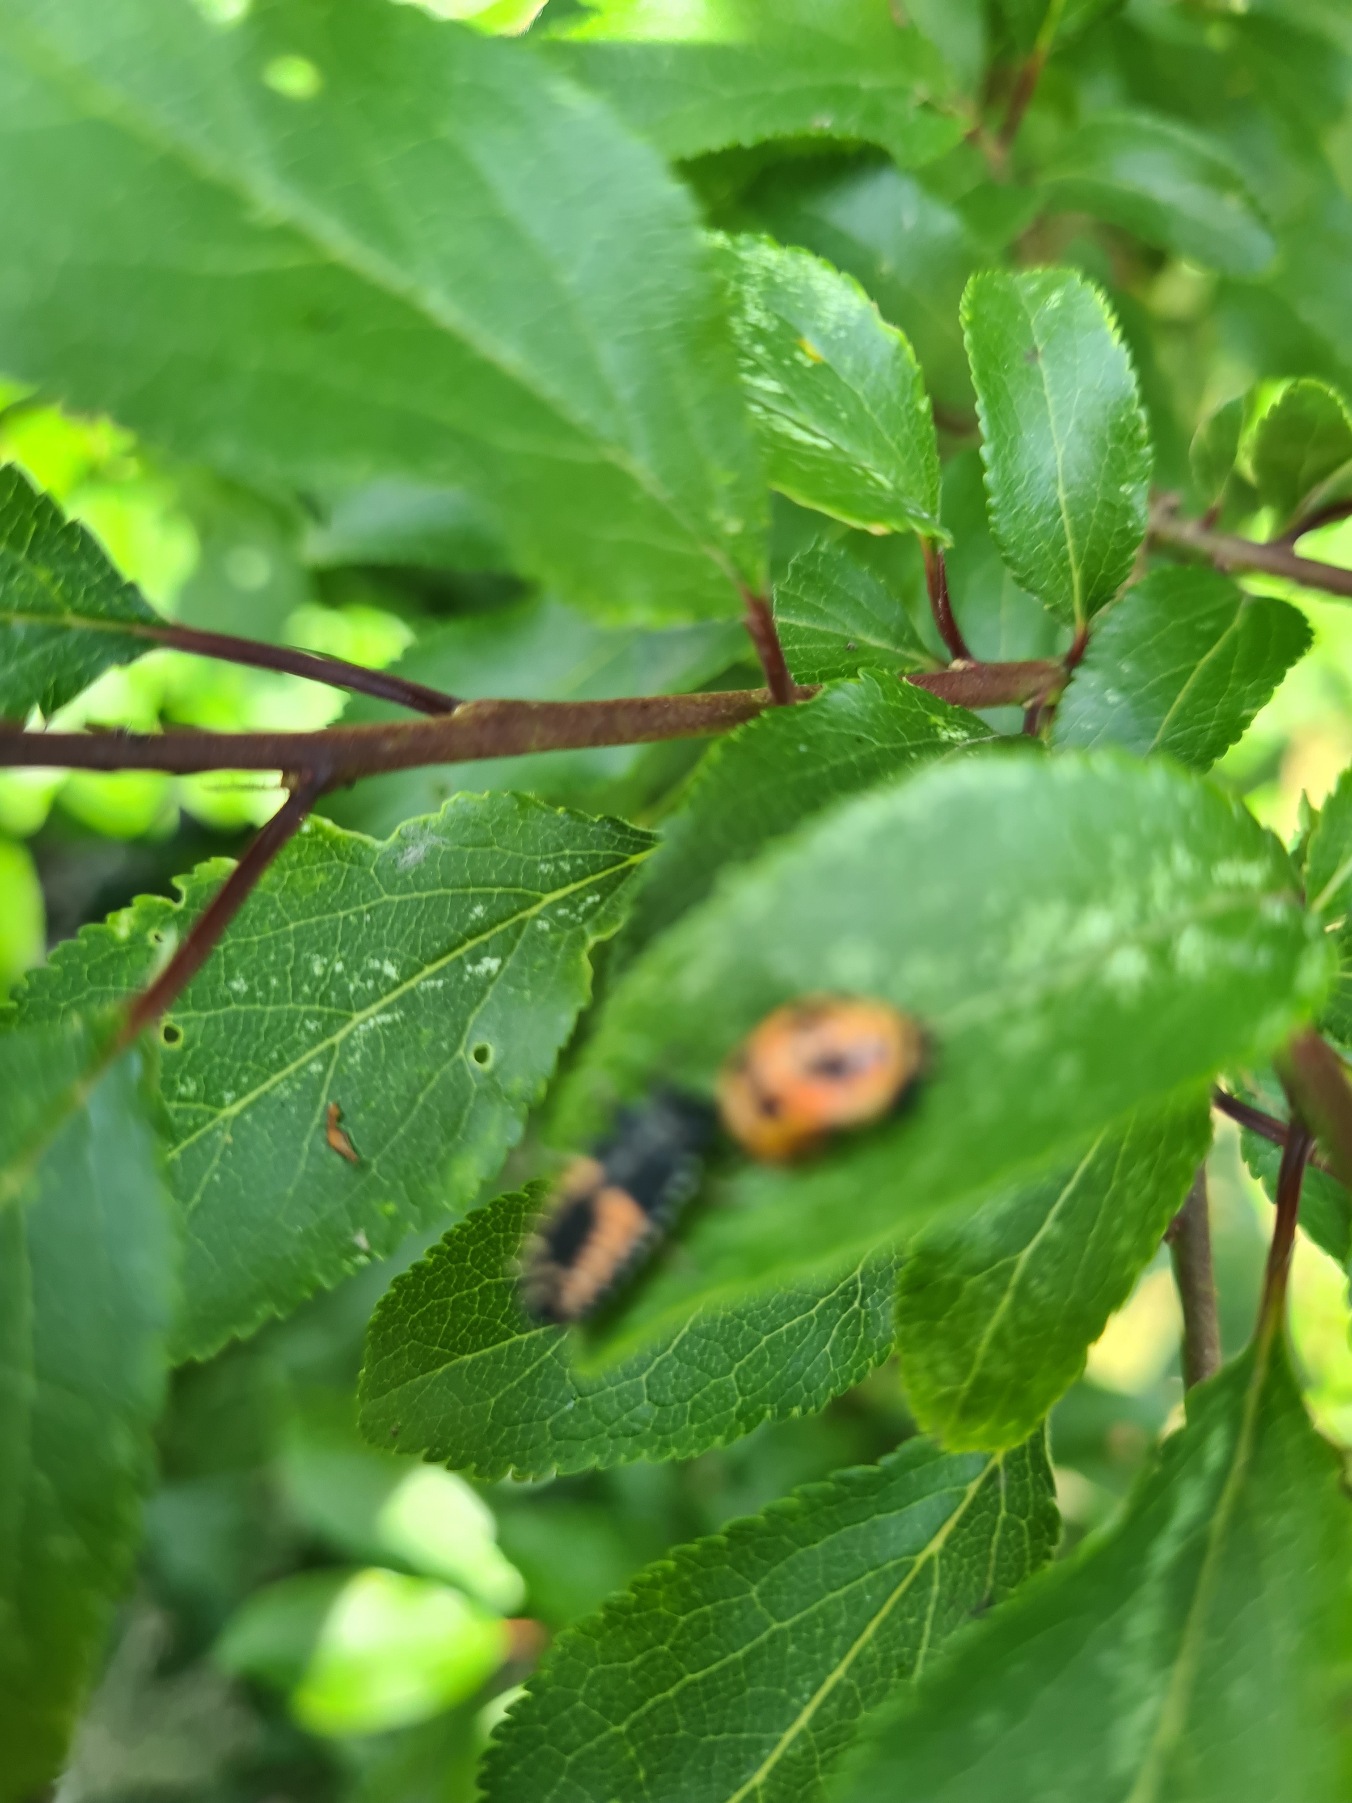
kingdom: Animalia
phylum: Arthropoda
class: Insecta
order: Coleoptera
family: Coccinellidae
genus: Harmonia
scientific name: Harmonia axyridis
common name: Harlekinmariehøne
